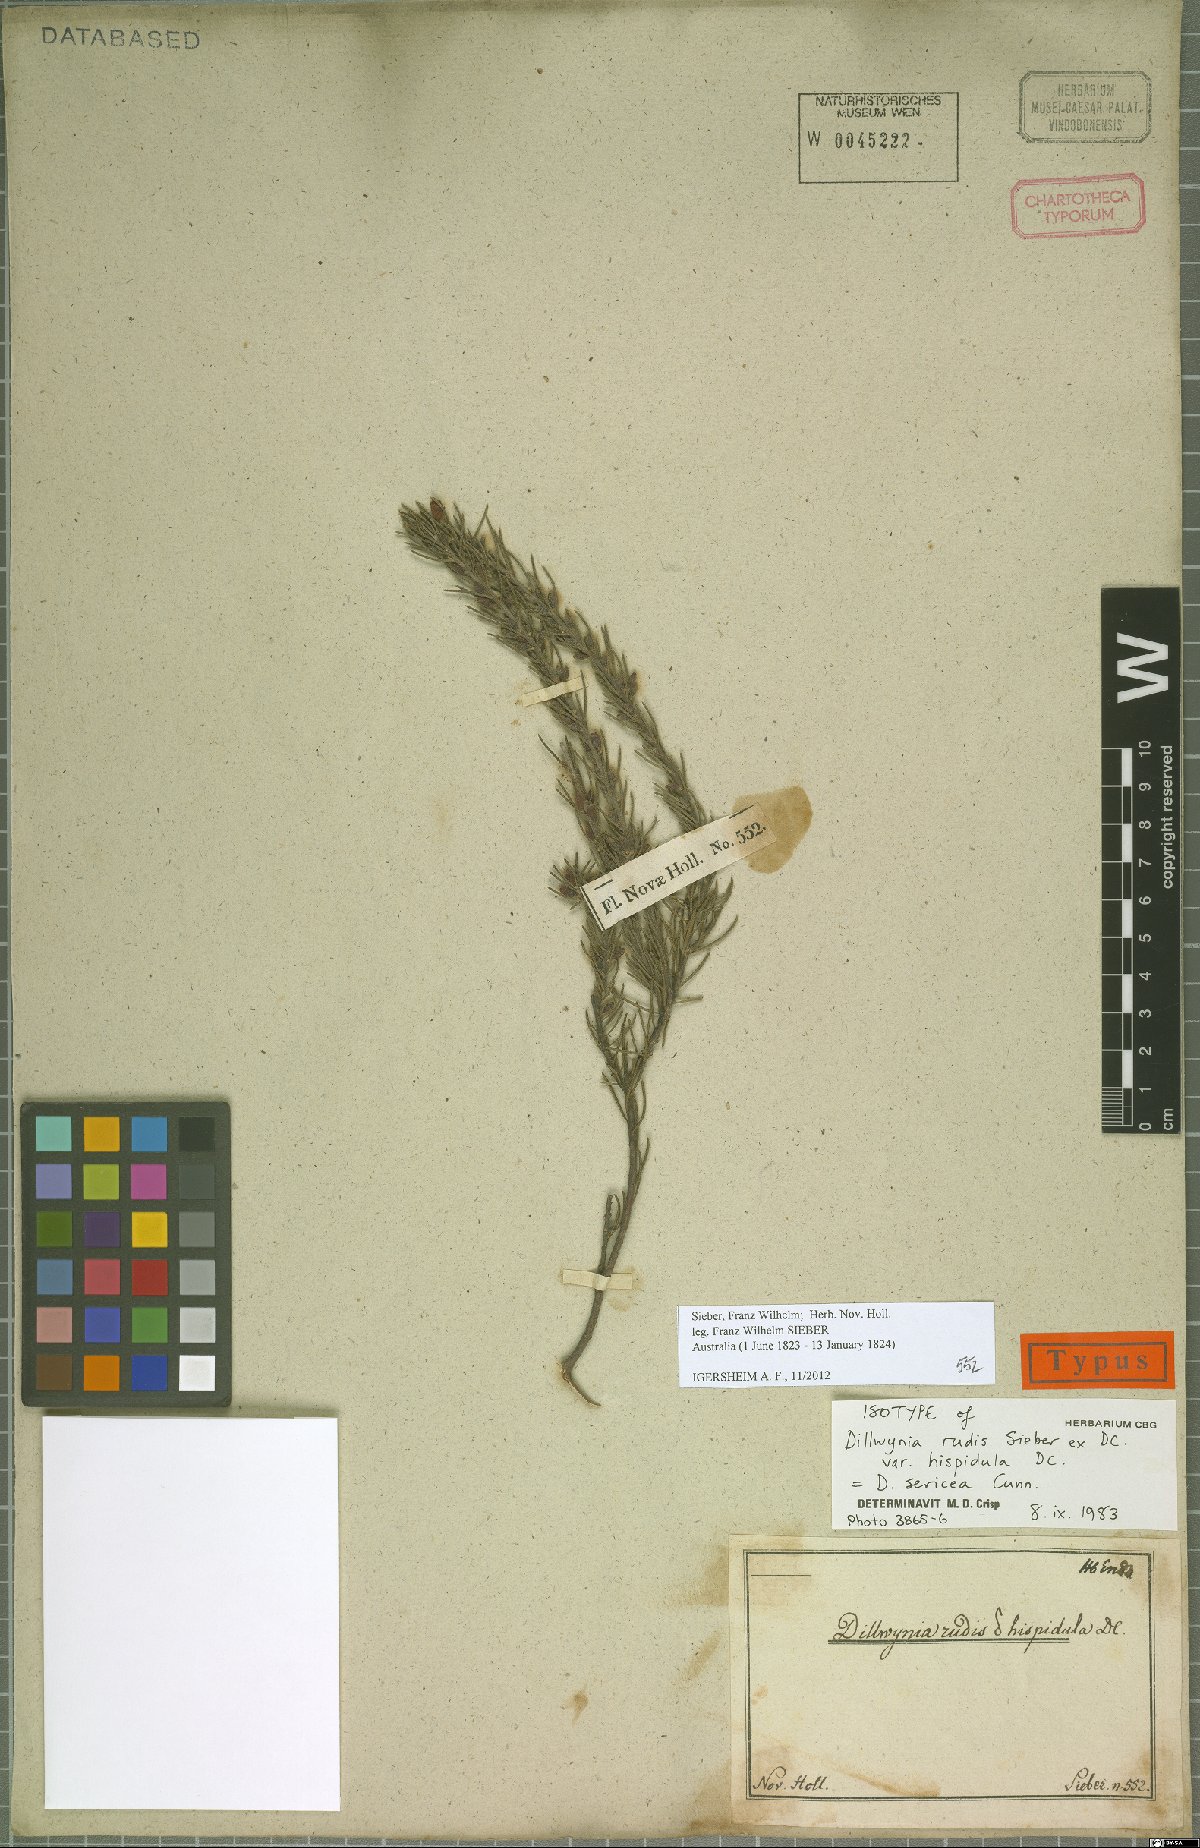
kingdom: Plantae
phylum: Tracheophyta
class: Magnoliopsida
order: Fabales
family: Fabaceae
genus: Dillwynia
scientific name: Dillwynia sericea
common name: Showy parrot-pea
